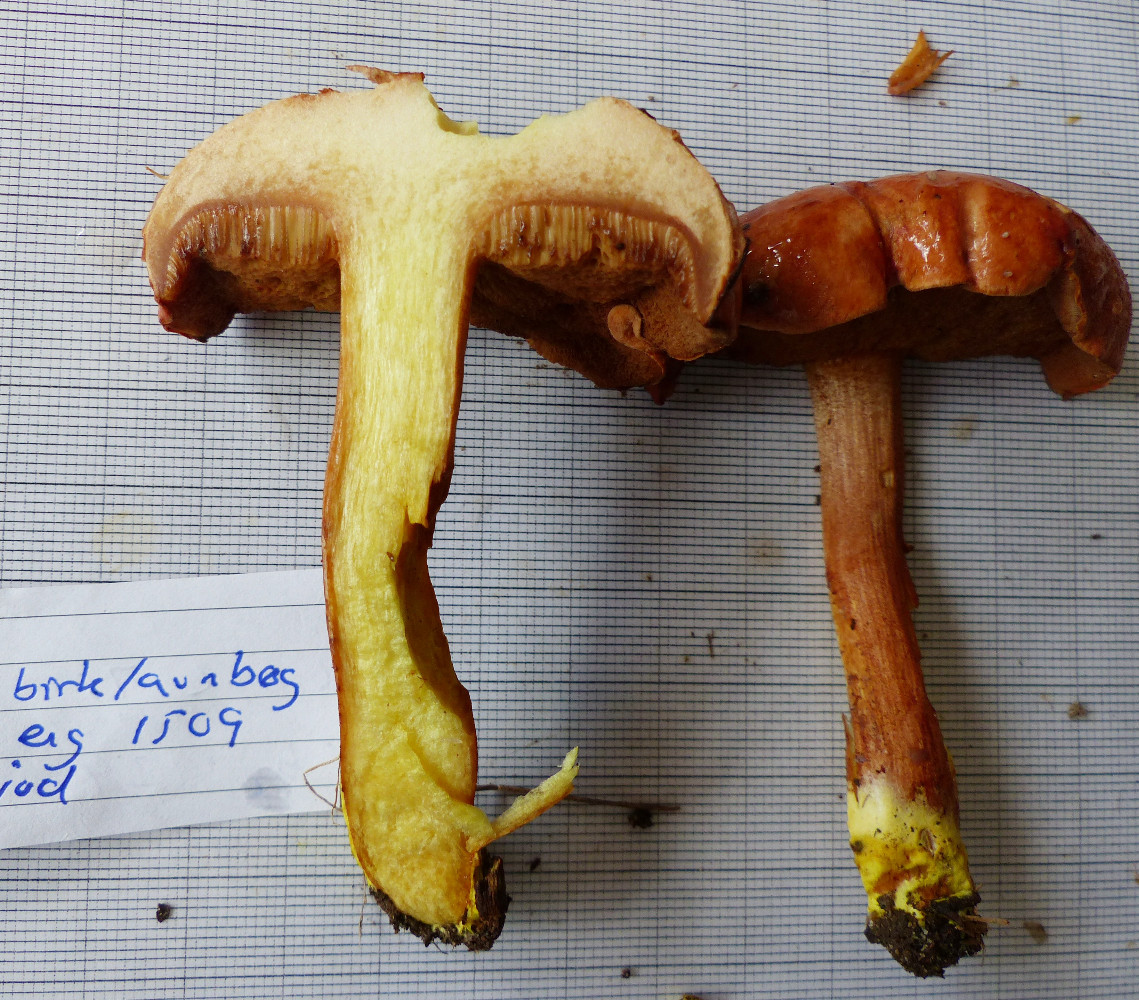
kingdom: Fungi
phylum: Basidiomycota
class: Agaricomycetes
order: Boletales
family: Boletaceae
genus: Chalciporus
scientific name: Chalciporus piperatus
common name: peberrørhat
